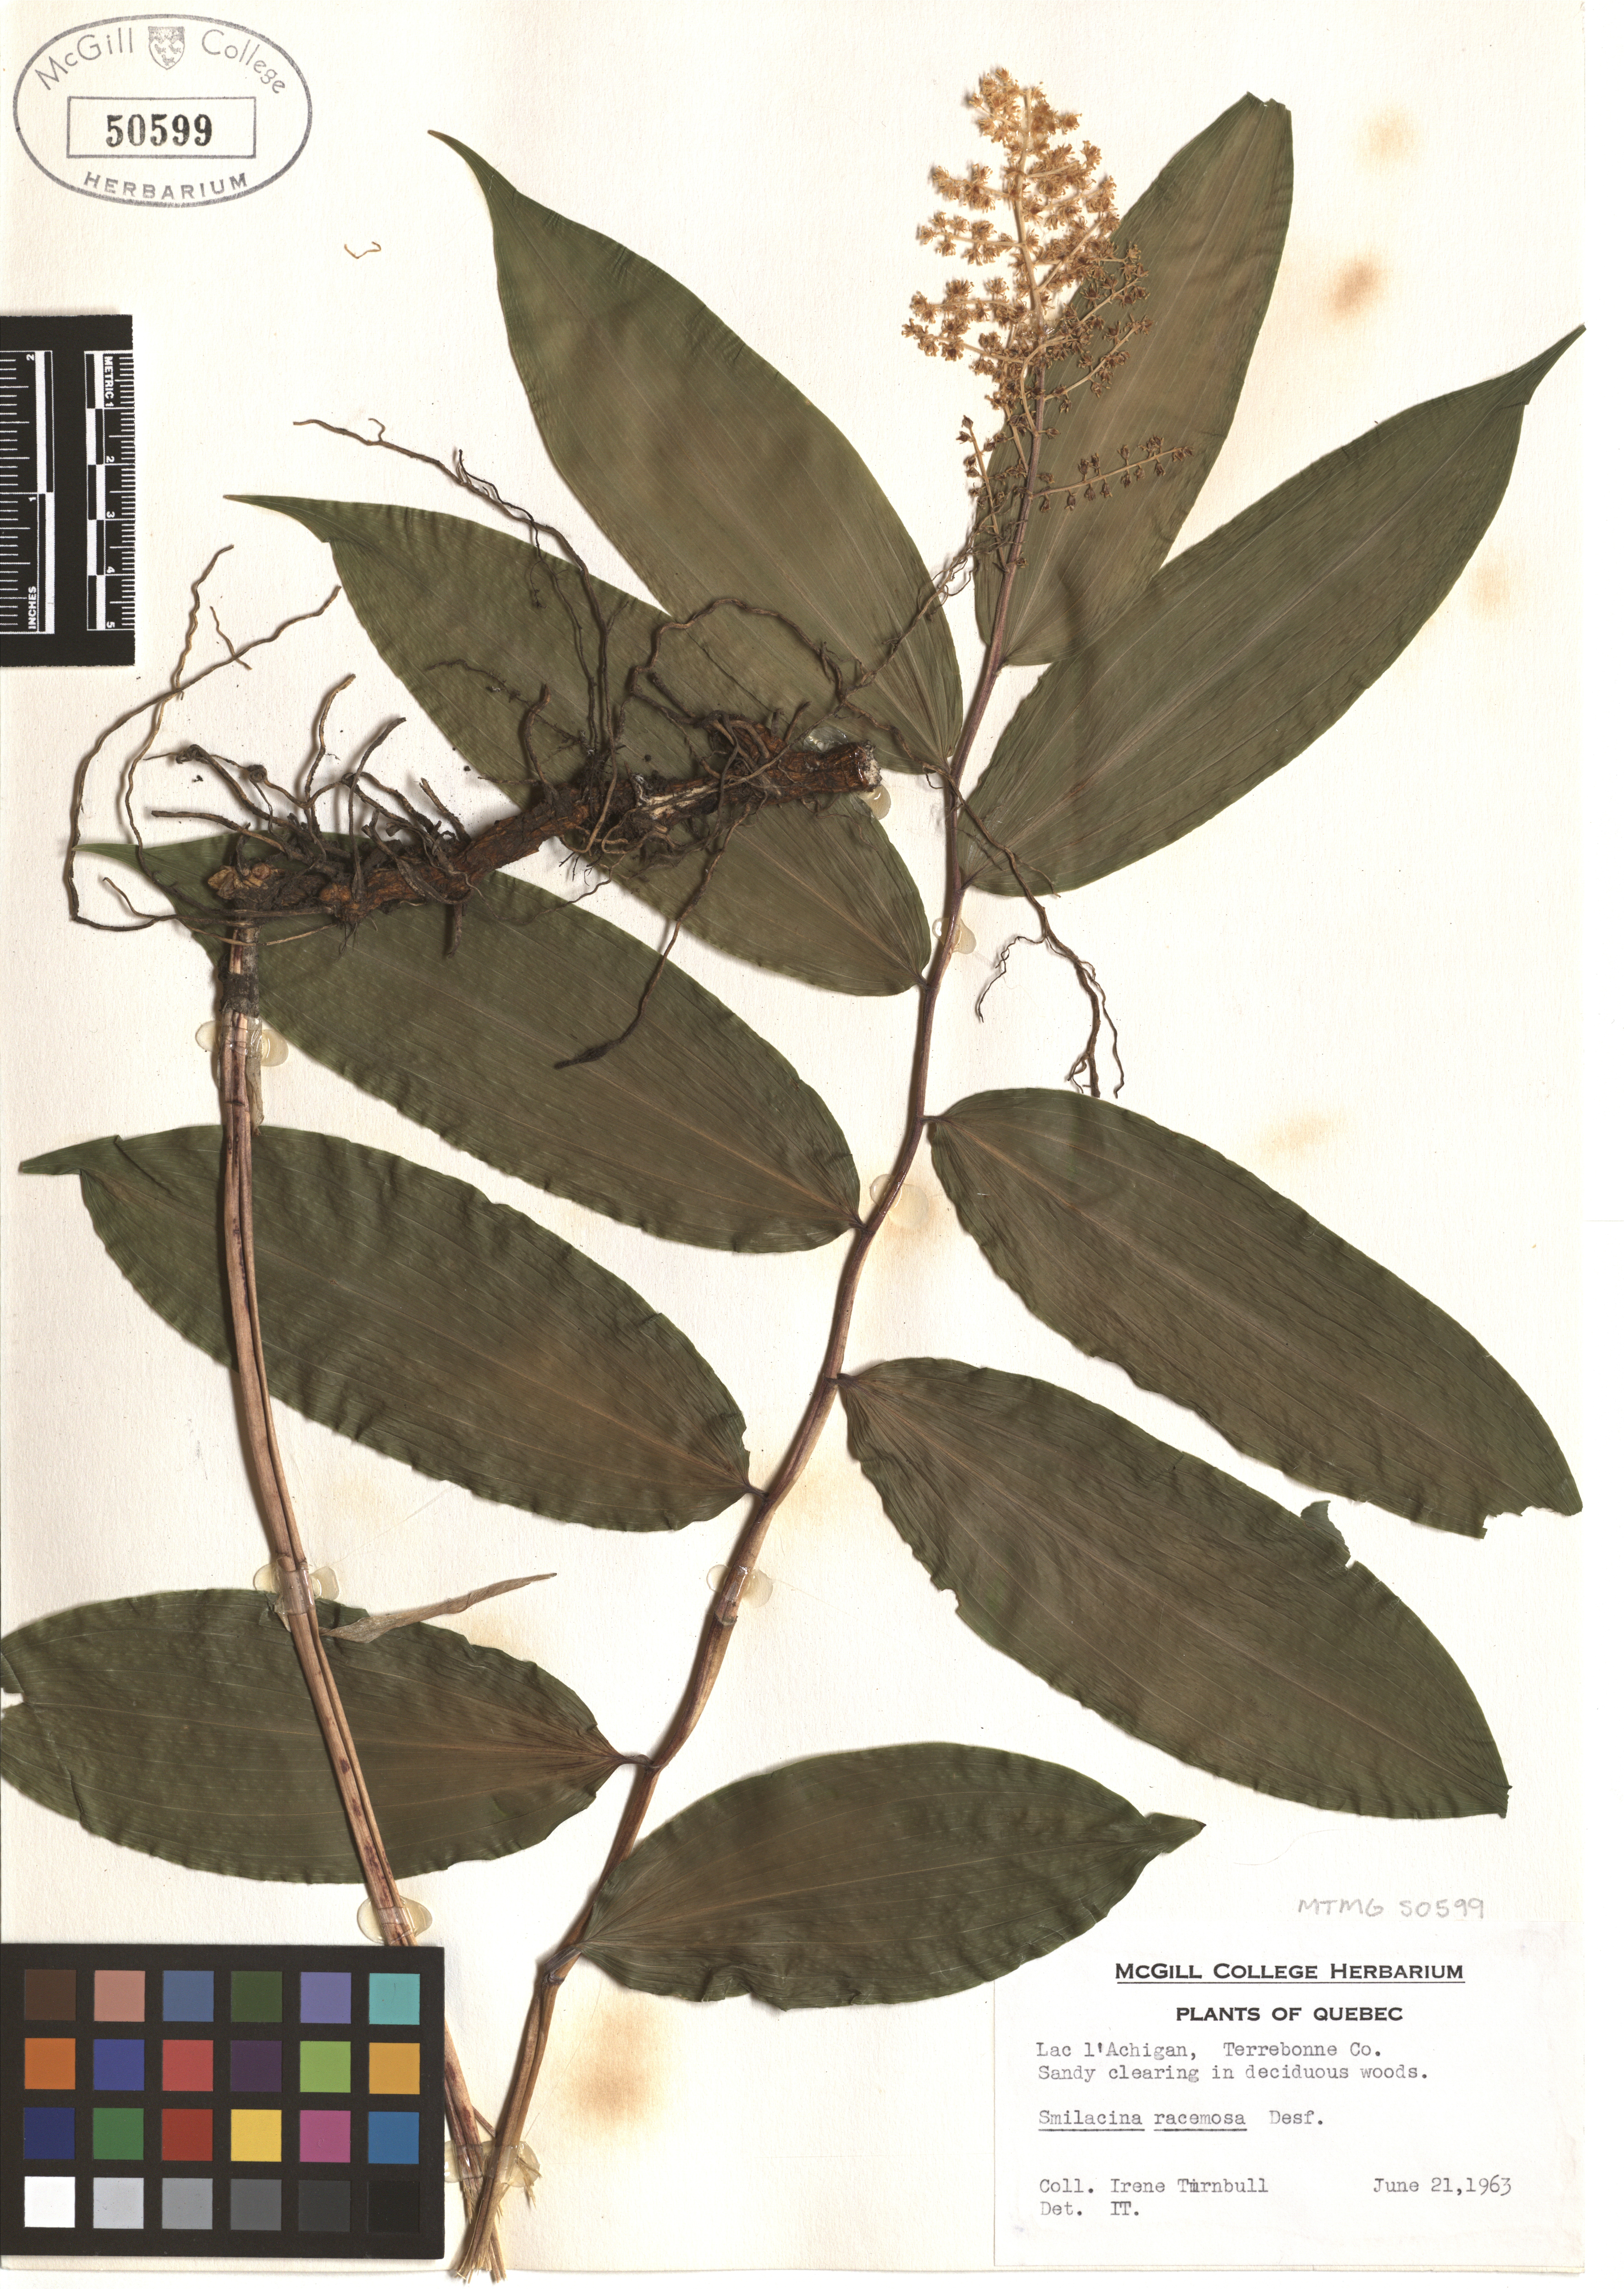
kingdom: Plantae
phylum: Tracheophyta
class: Liliopsida
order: Asparagales
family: Asparagaceae
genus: Maianthemum
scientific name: Maianthemum racemosum
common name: False spikenard
